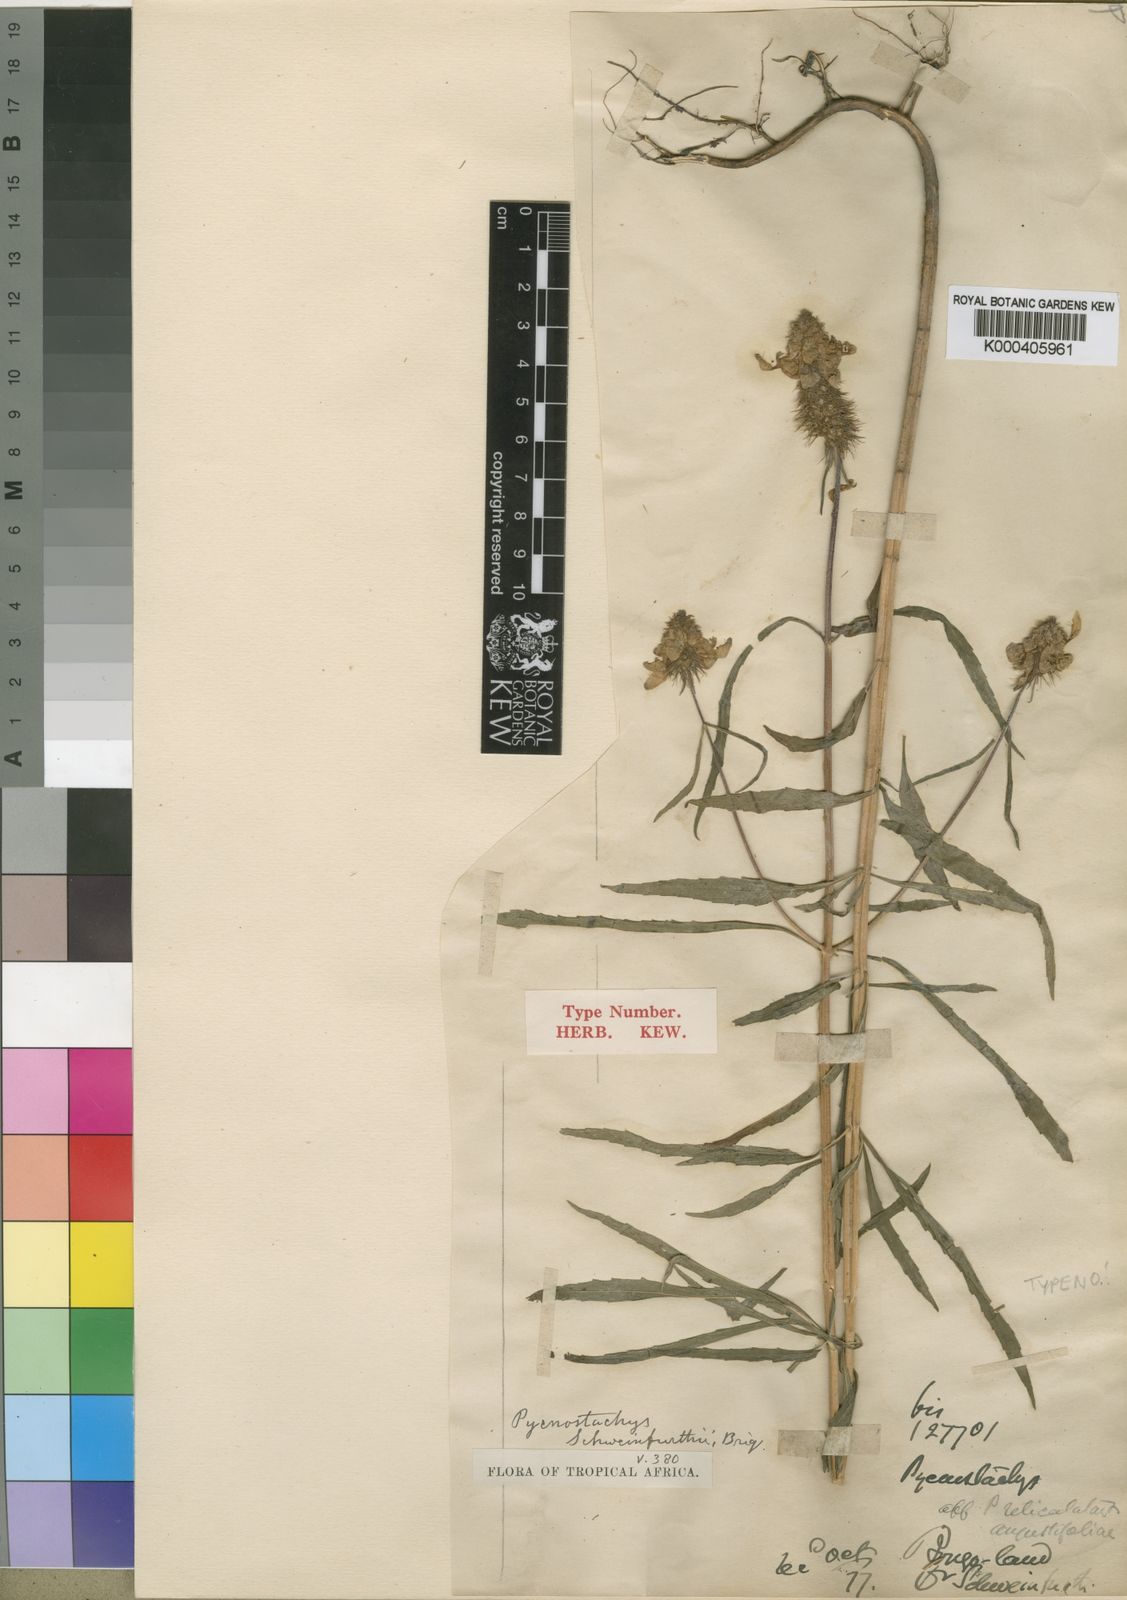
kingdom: Plantae
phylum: Tracheophyta
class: Magnoliopsida
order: Lamiales
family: Lamiaceae
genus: Coleus
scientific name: Coleus togoensis
